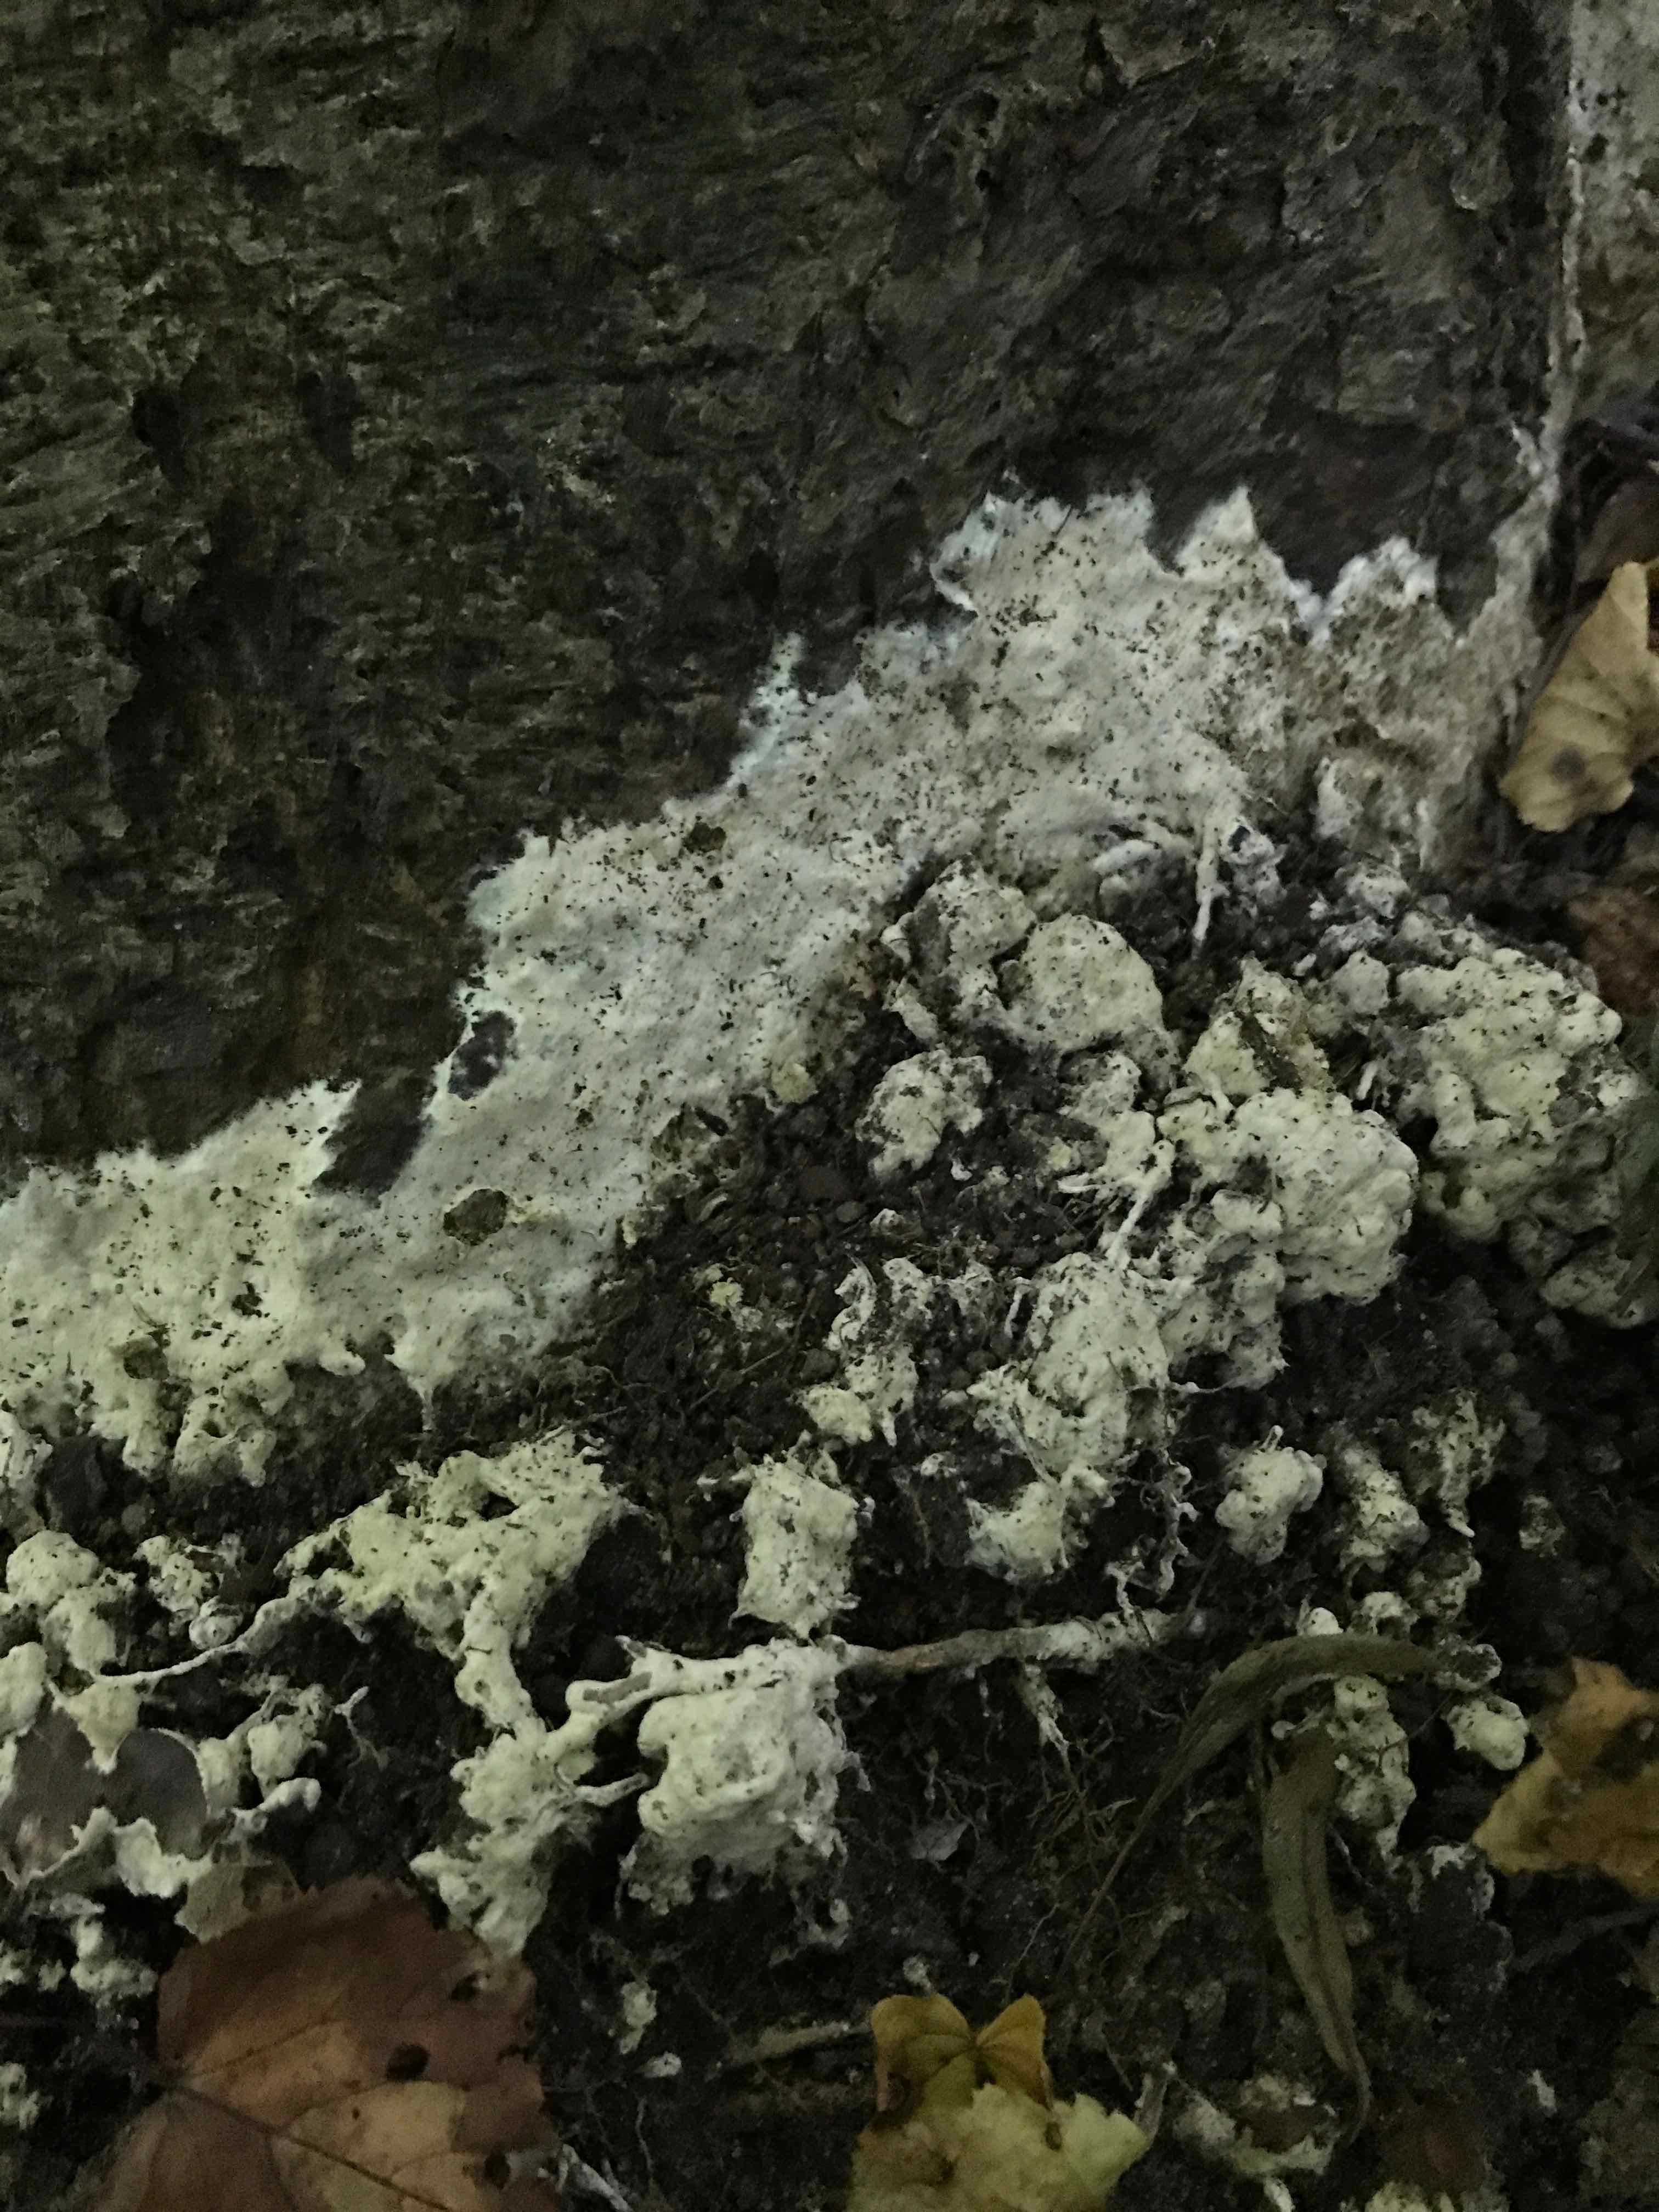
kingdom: Fungi
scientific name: Fungi
